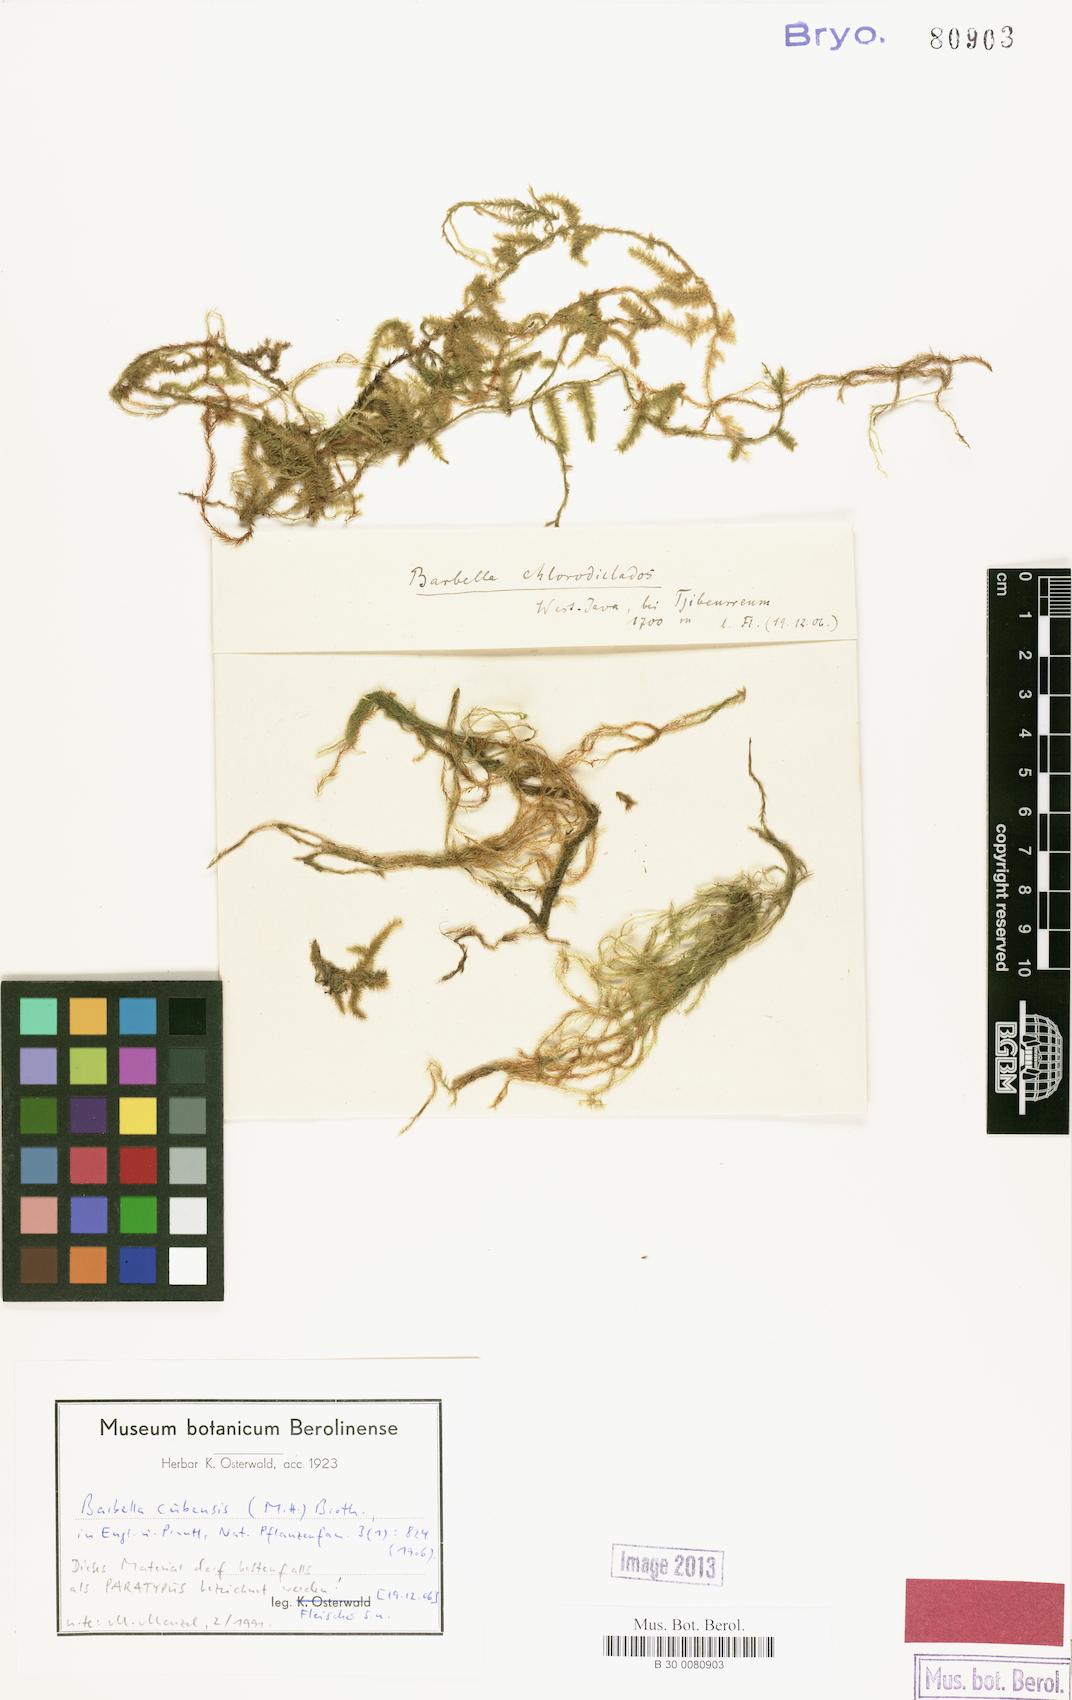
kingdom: Plantae
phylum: Bryophyta
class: Bryopsida
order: Hypnales
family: Meteoriaceae
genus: Barbellopsis
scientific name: Barbellopsis trichophora
